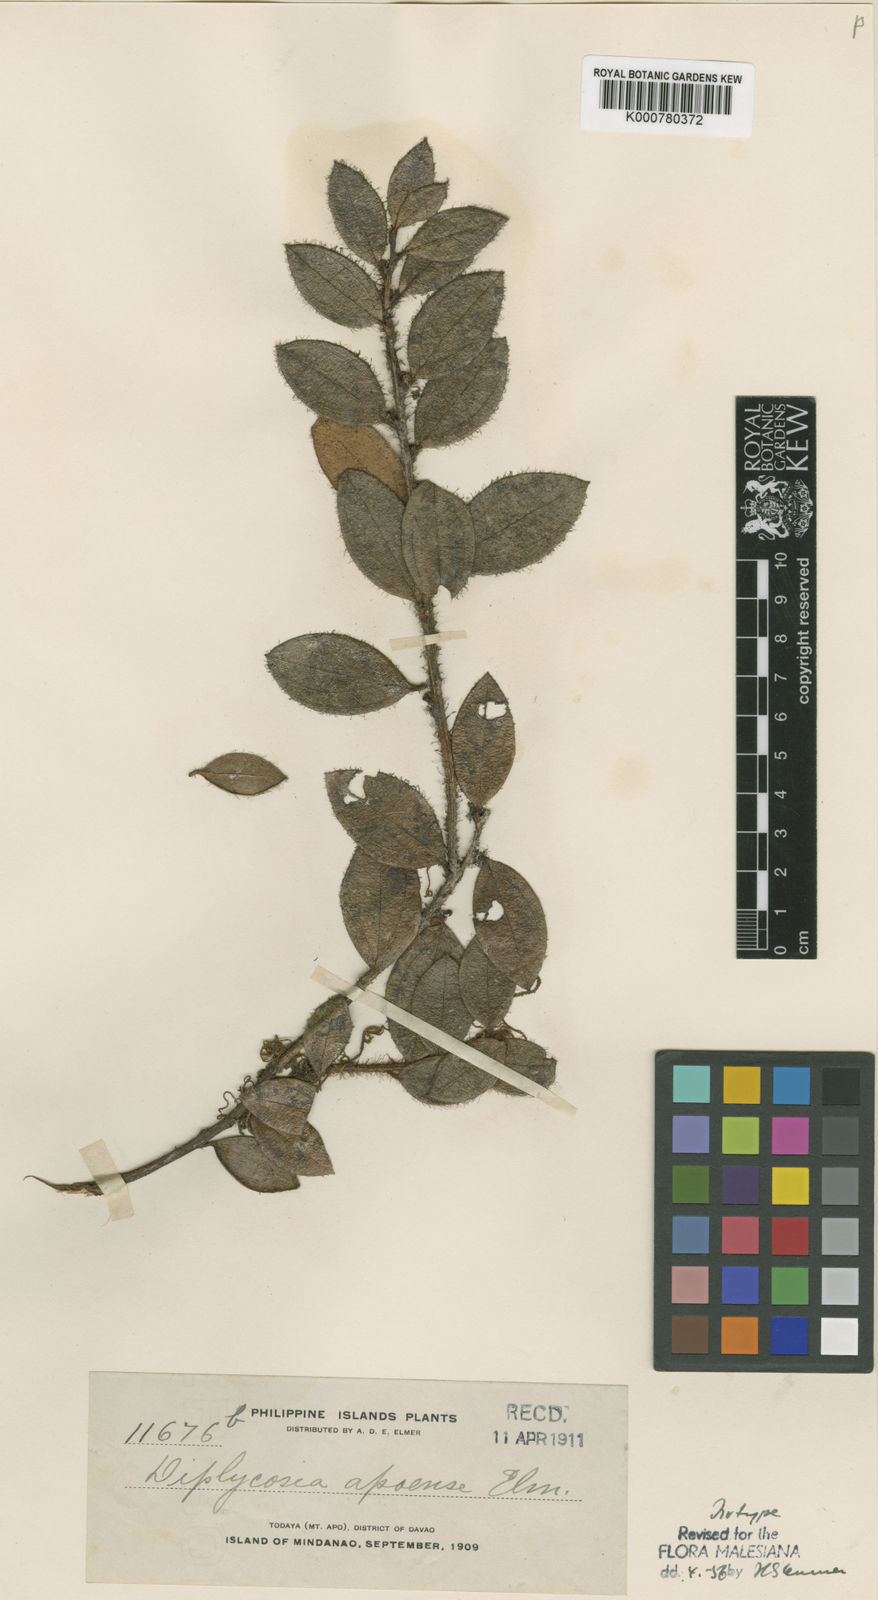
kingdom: Plantae
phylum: Tracheophyta
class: Magnoliopsida
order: Ericales
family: Ericaceae
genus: Gaultheria
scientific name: Gaultheria apoensis
